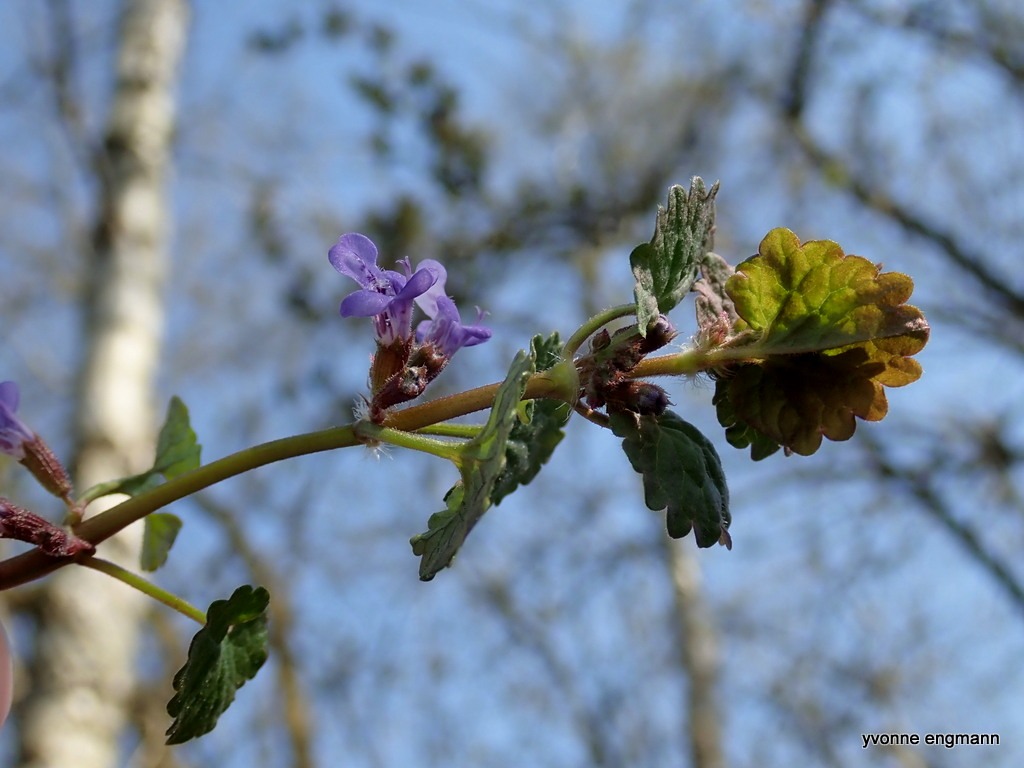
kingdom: Plantae
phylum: Tracheophyta
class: Magnoliopsida
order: Lamiales
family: Lamiaceae
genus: Glechoma
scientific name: Glechoma hederacea
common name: Korsknap
